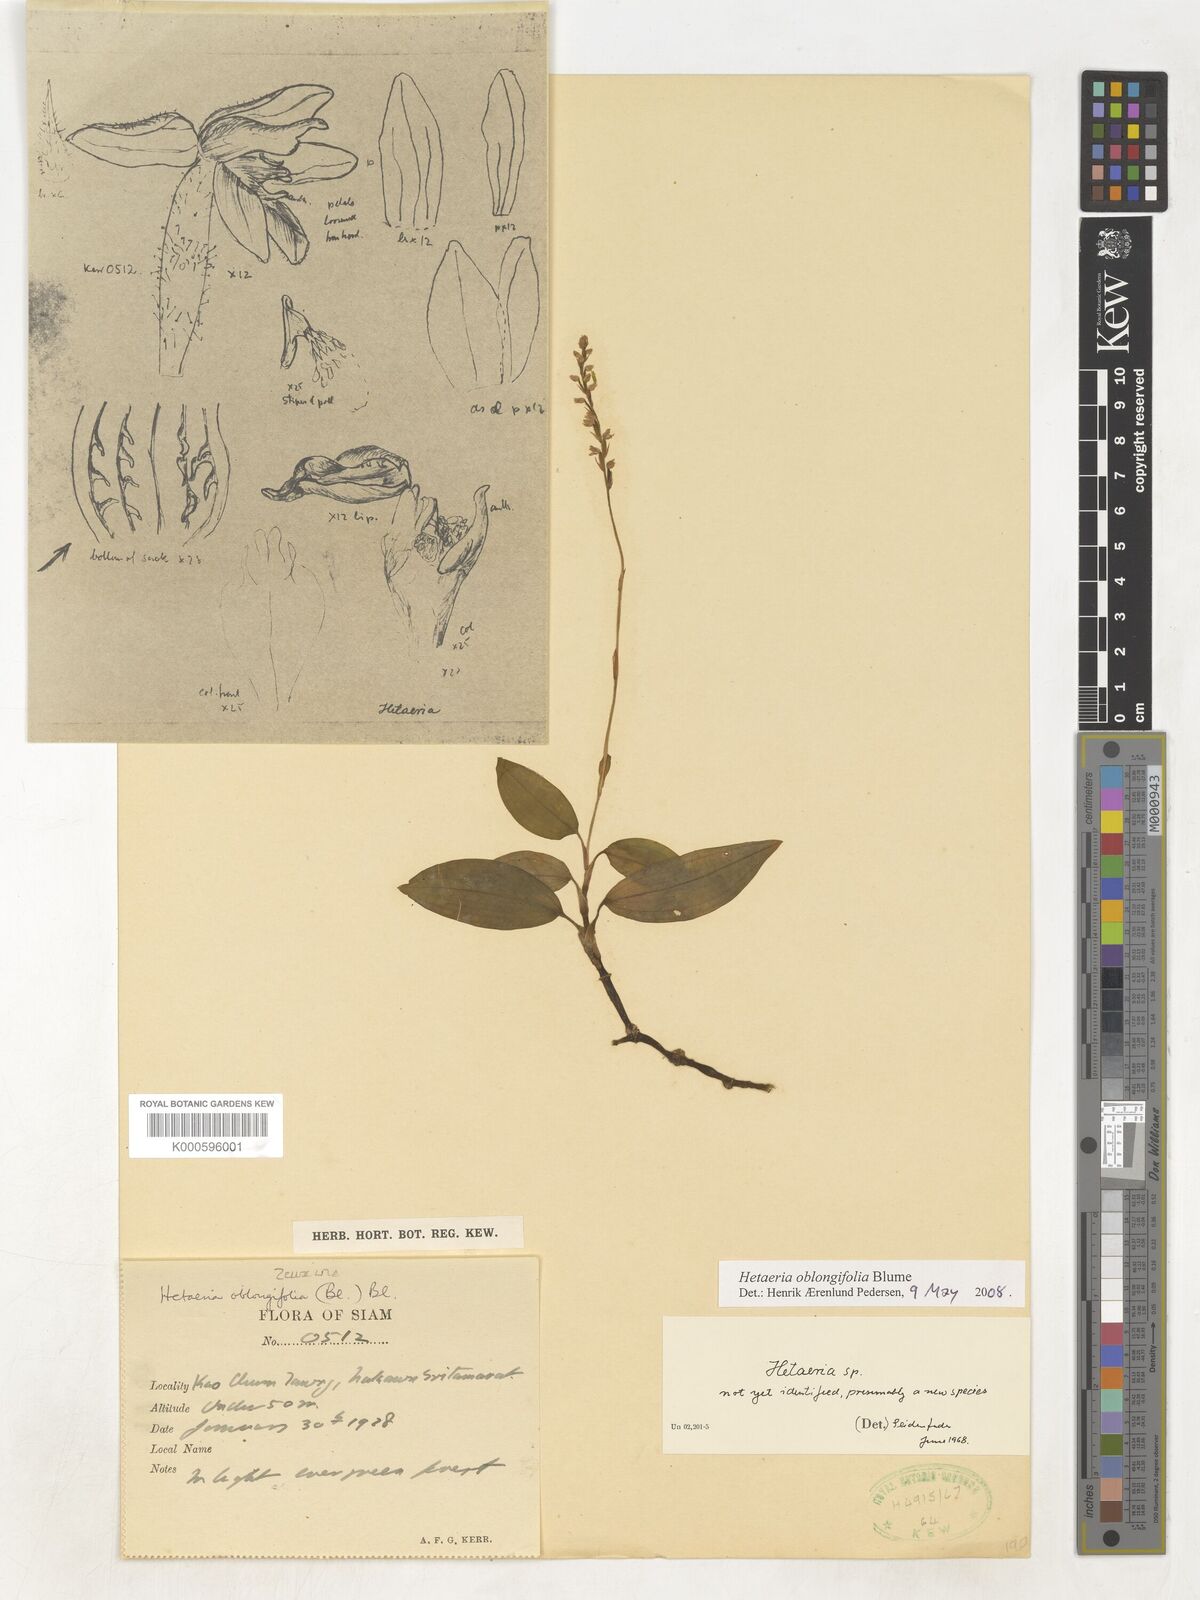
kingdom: Plantae
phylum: Tracheophyta
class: Liliopsida
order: Asparagales
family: Orchidaceae
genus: Hetaeria
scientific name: Hetaeria oblongifolia
